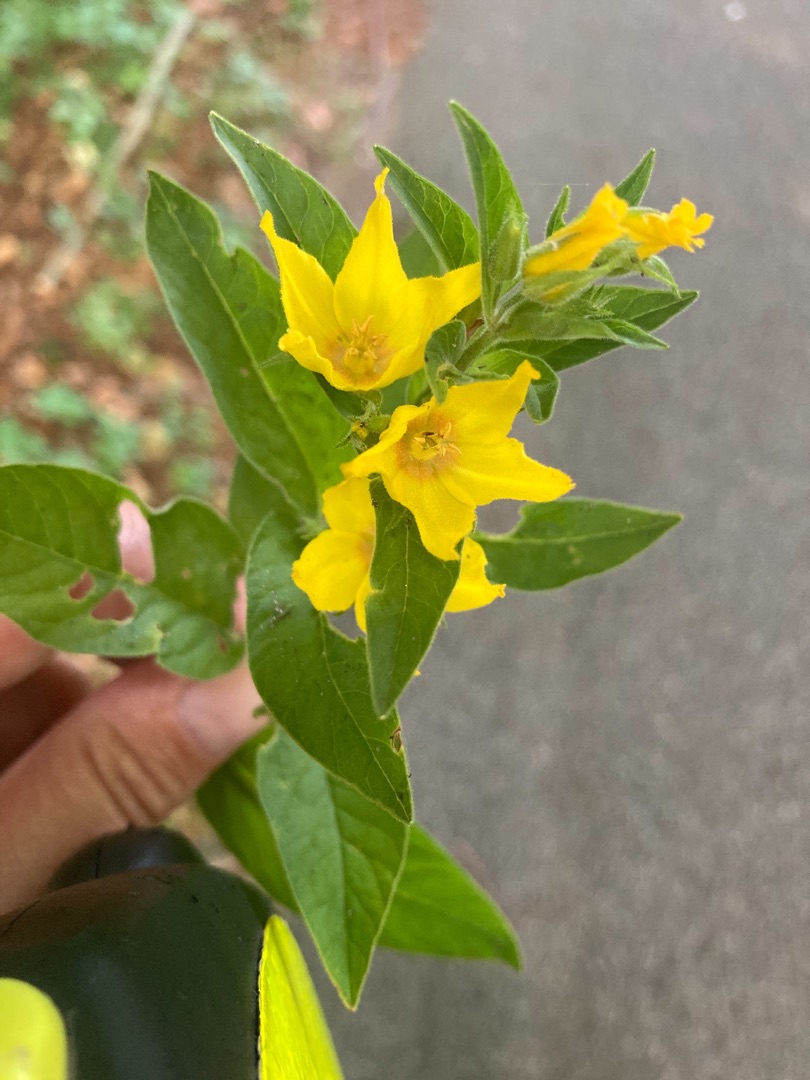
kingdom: Plantae
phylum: Tracheophyta
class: Magnoliopsida
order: Ericales
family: Primulaceae
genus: Lysimachia
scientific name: Lysimachia punctata
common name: Prikbladet fredløs
